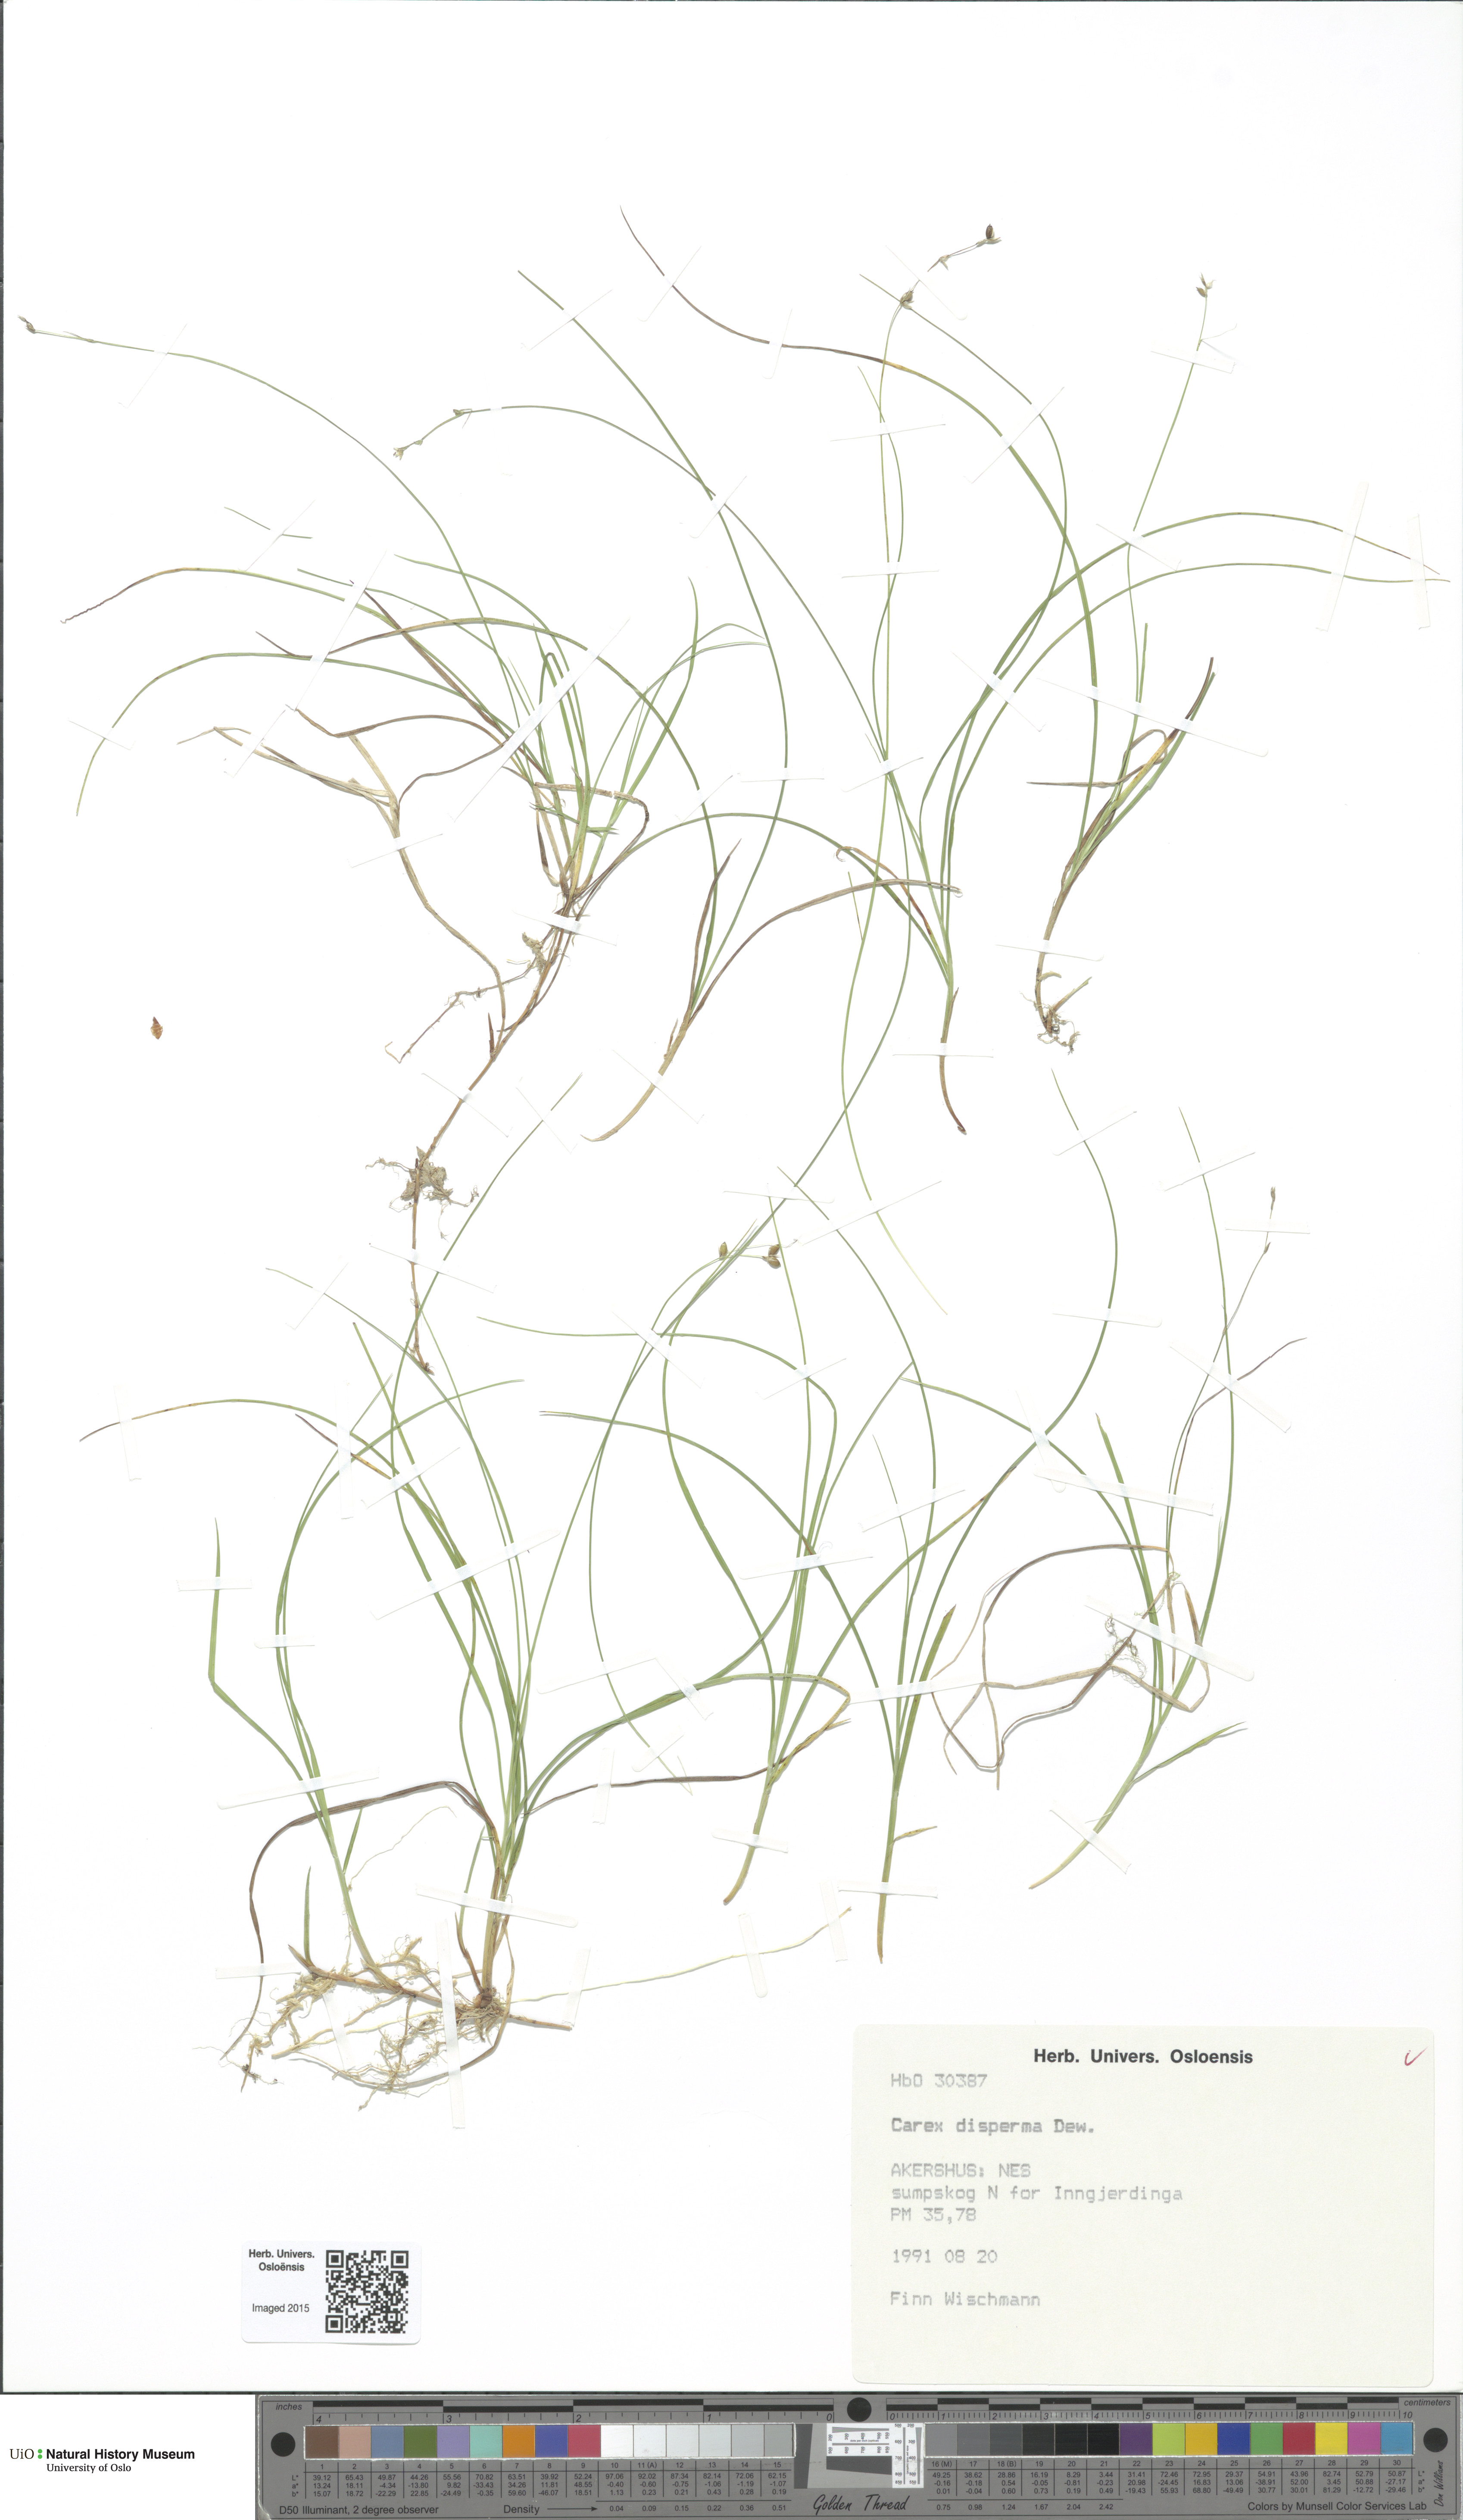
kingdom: Plantae
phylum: Tracheophyta
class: Liliopsida
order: Poales
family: Cyperaceae
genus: Carex
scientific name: Carex disperma
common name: Short-leaved sedge
